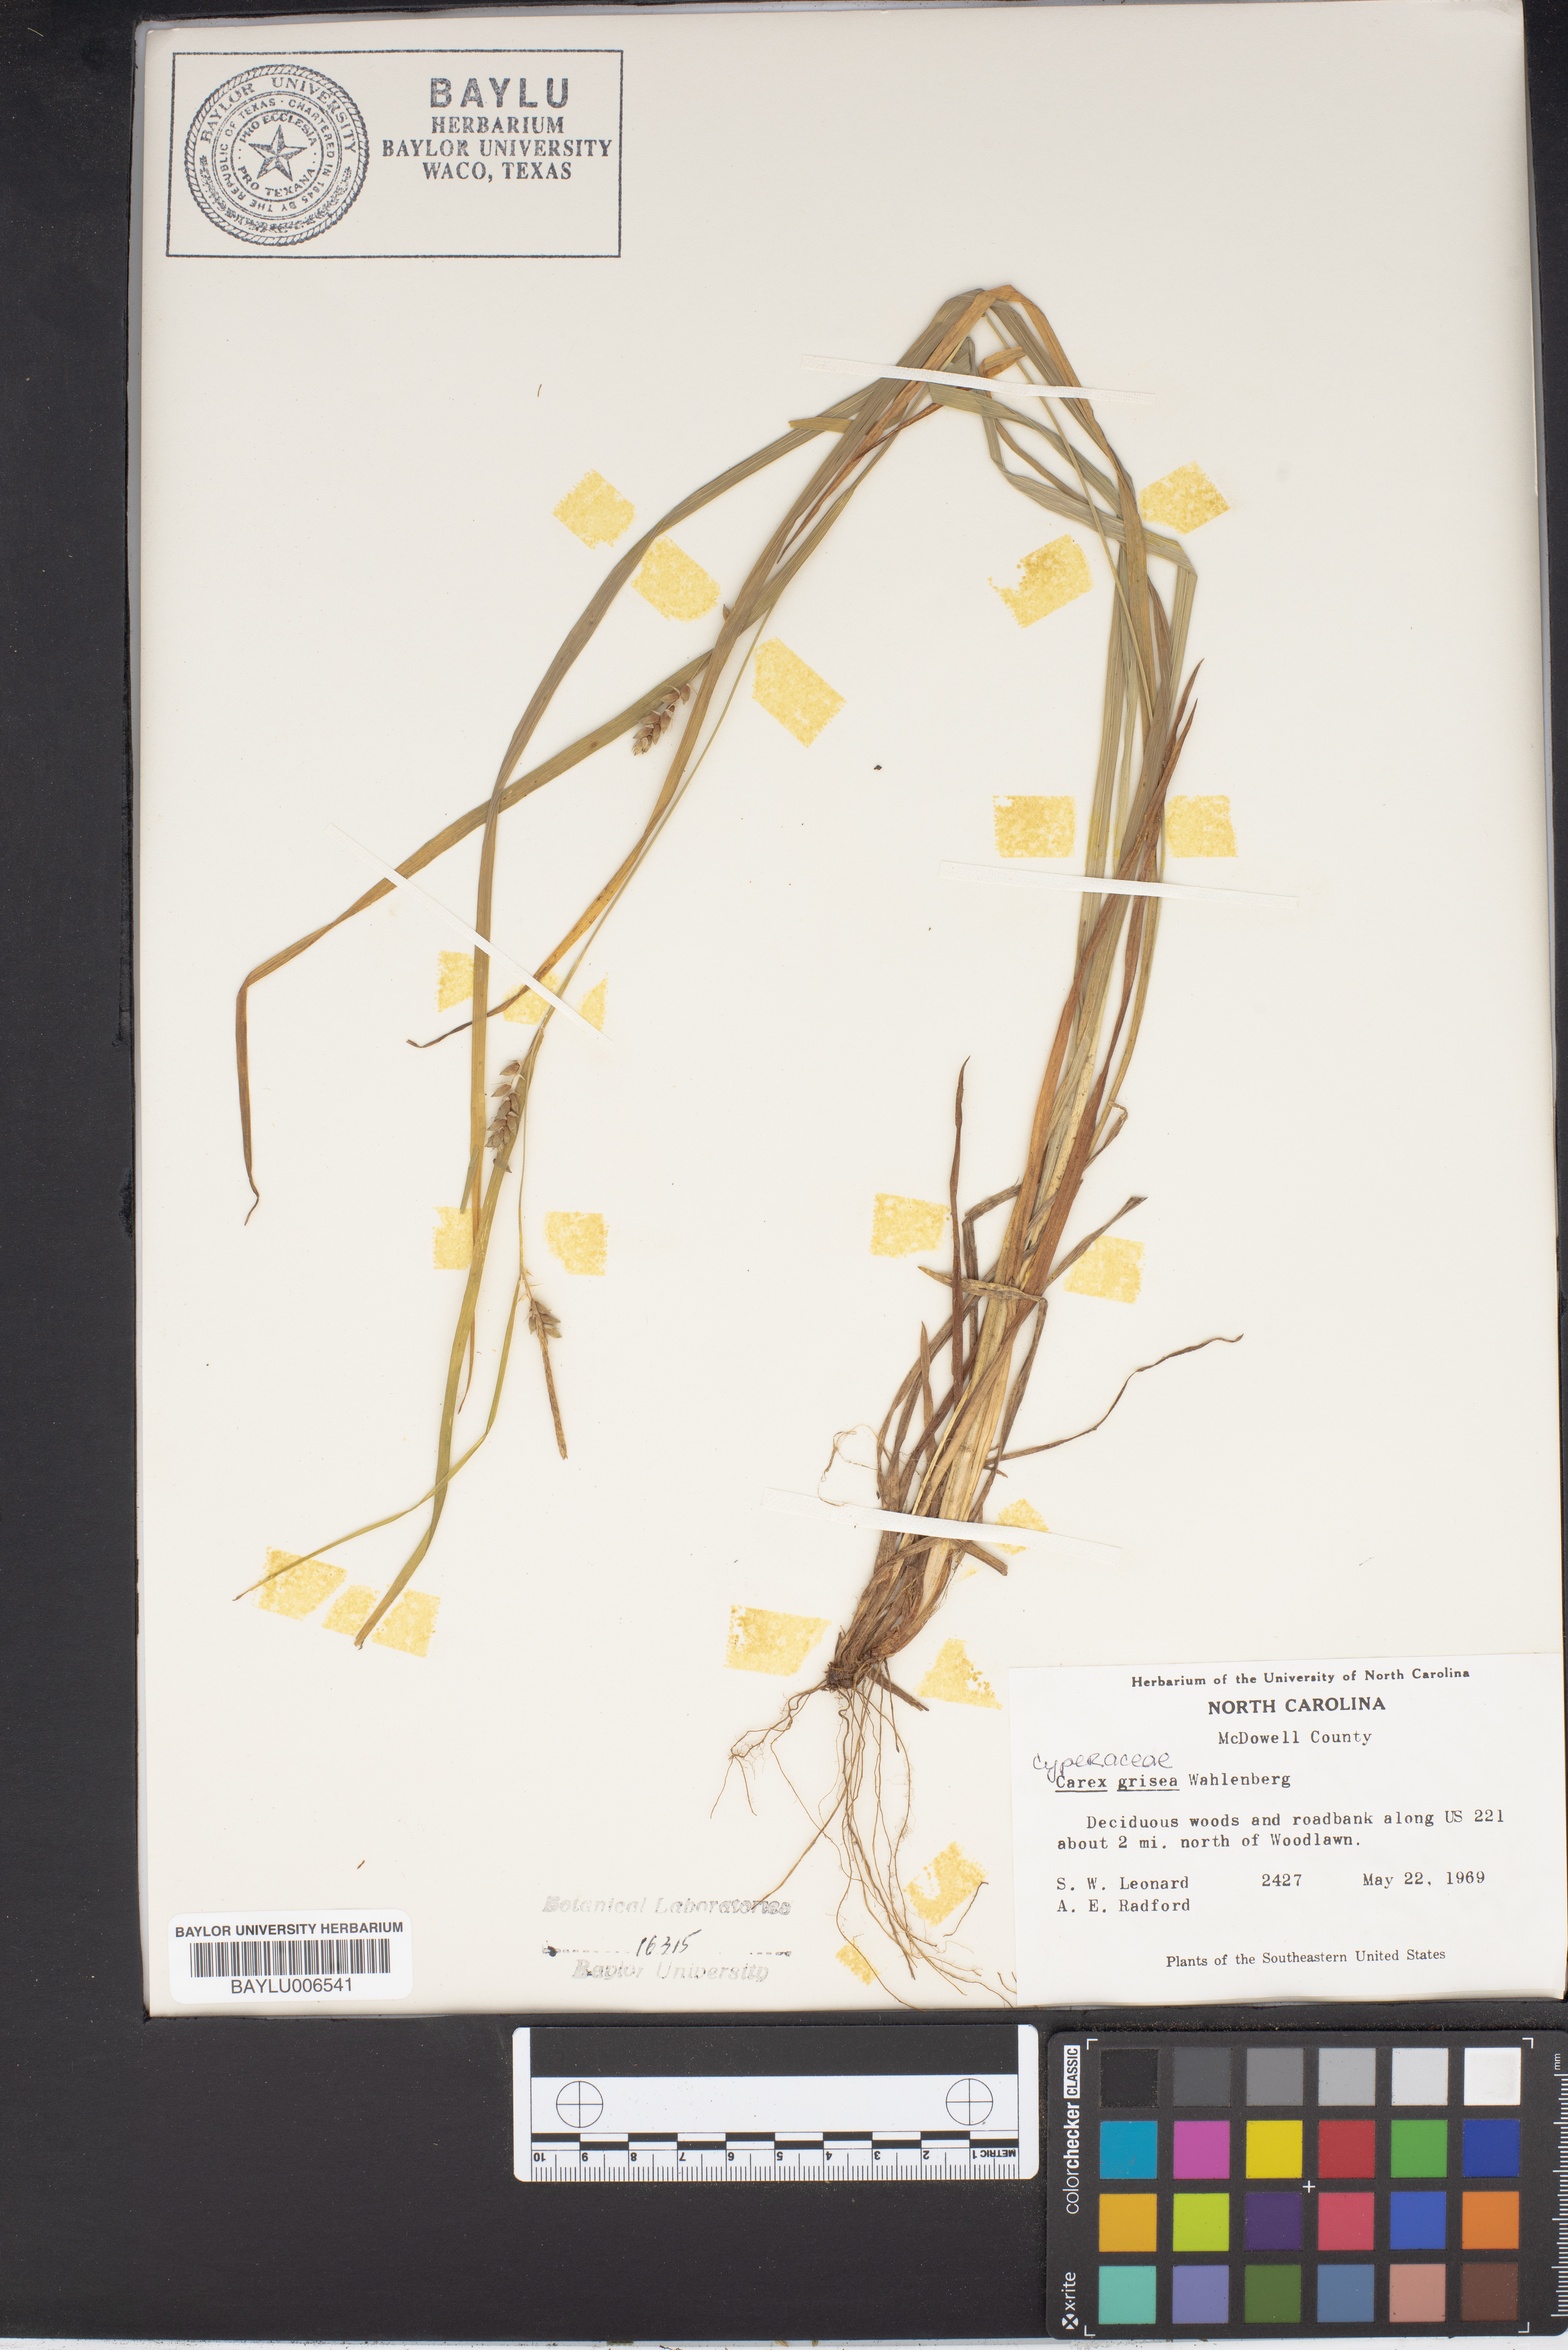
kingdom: Plantae
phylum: Tracheophyta
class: Liliopsida
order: Poales
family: Cyperaceae
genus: Carex
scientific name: Carex grisea
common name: Eastern narrow-leaved sedge
